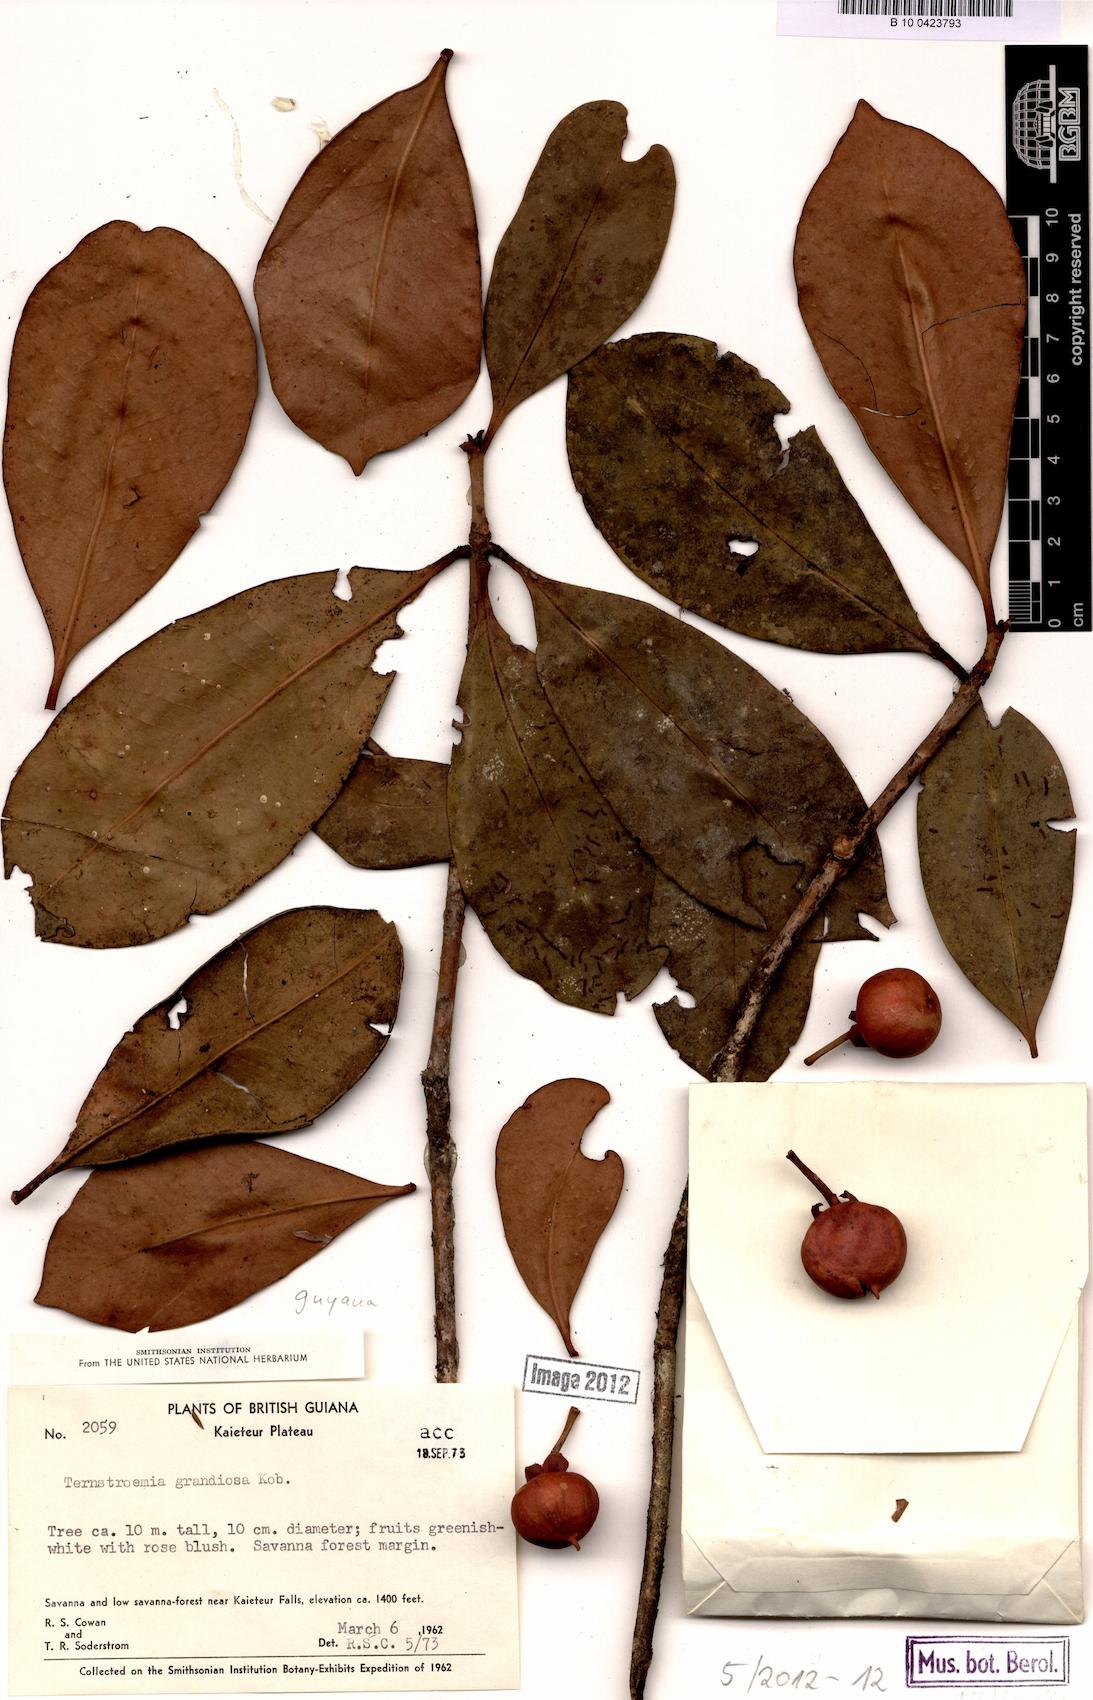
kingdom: Plantae
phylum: Tracheophyta
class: Magnoliopsida
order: Ericales
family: Pentaphylacaceae
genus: Ternstroemia
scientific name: Ternstroemia grandiosa
